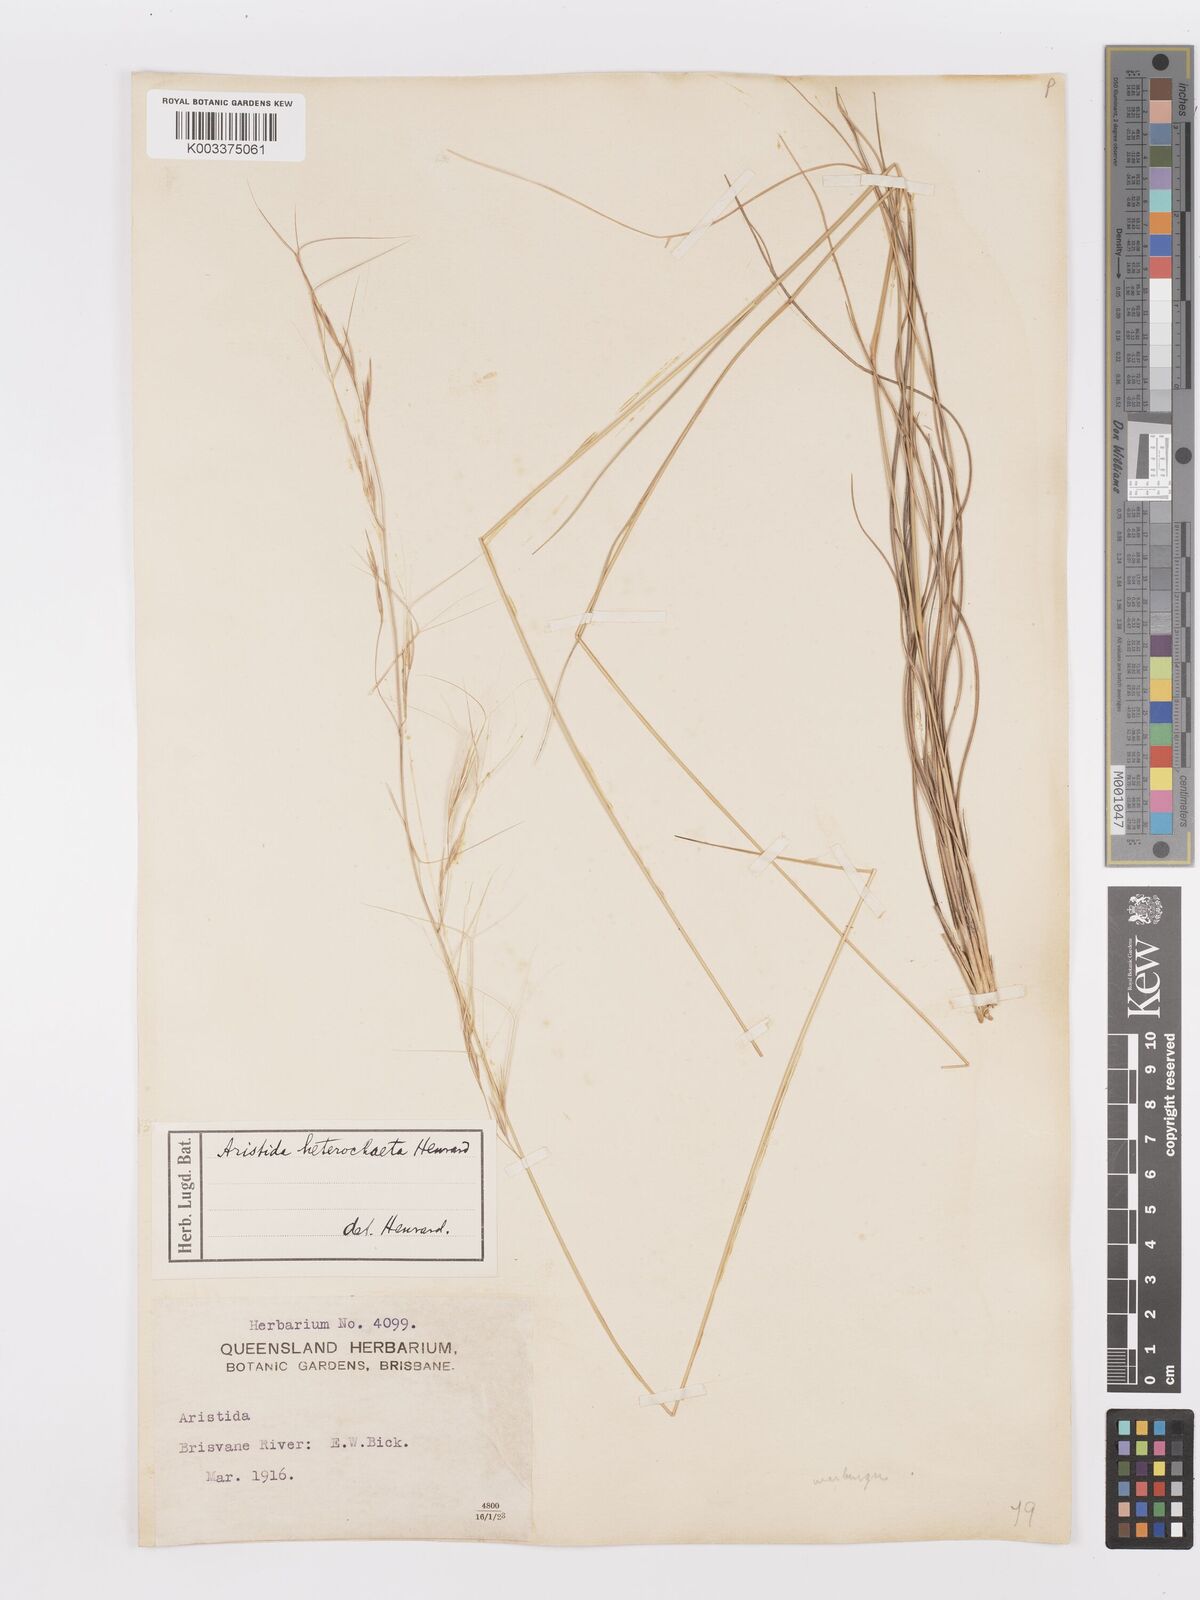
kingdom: Plantae
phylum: Tracheophyta
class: Liliopsida
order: Poales
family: Poaceae
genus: Aristida
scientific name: Aristida warburgii
